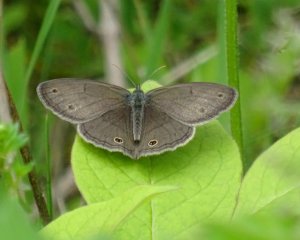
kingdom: Animalia
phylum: Arthropoda
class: Insecta
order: Lepidoptera
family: Nymphalidae
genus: Euptychia
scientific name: Euptychia cymela
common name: Little Wood Satyr
